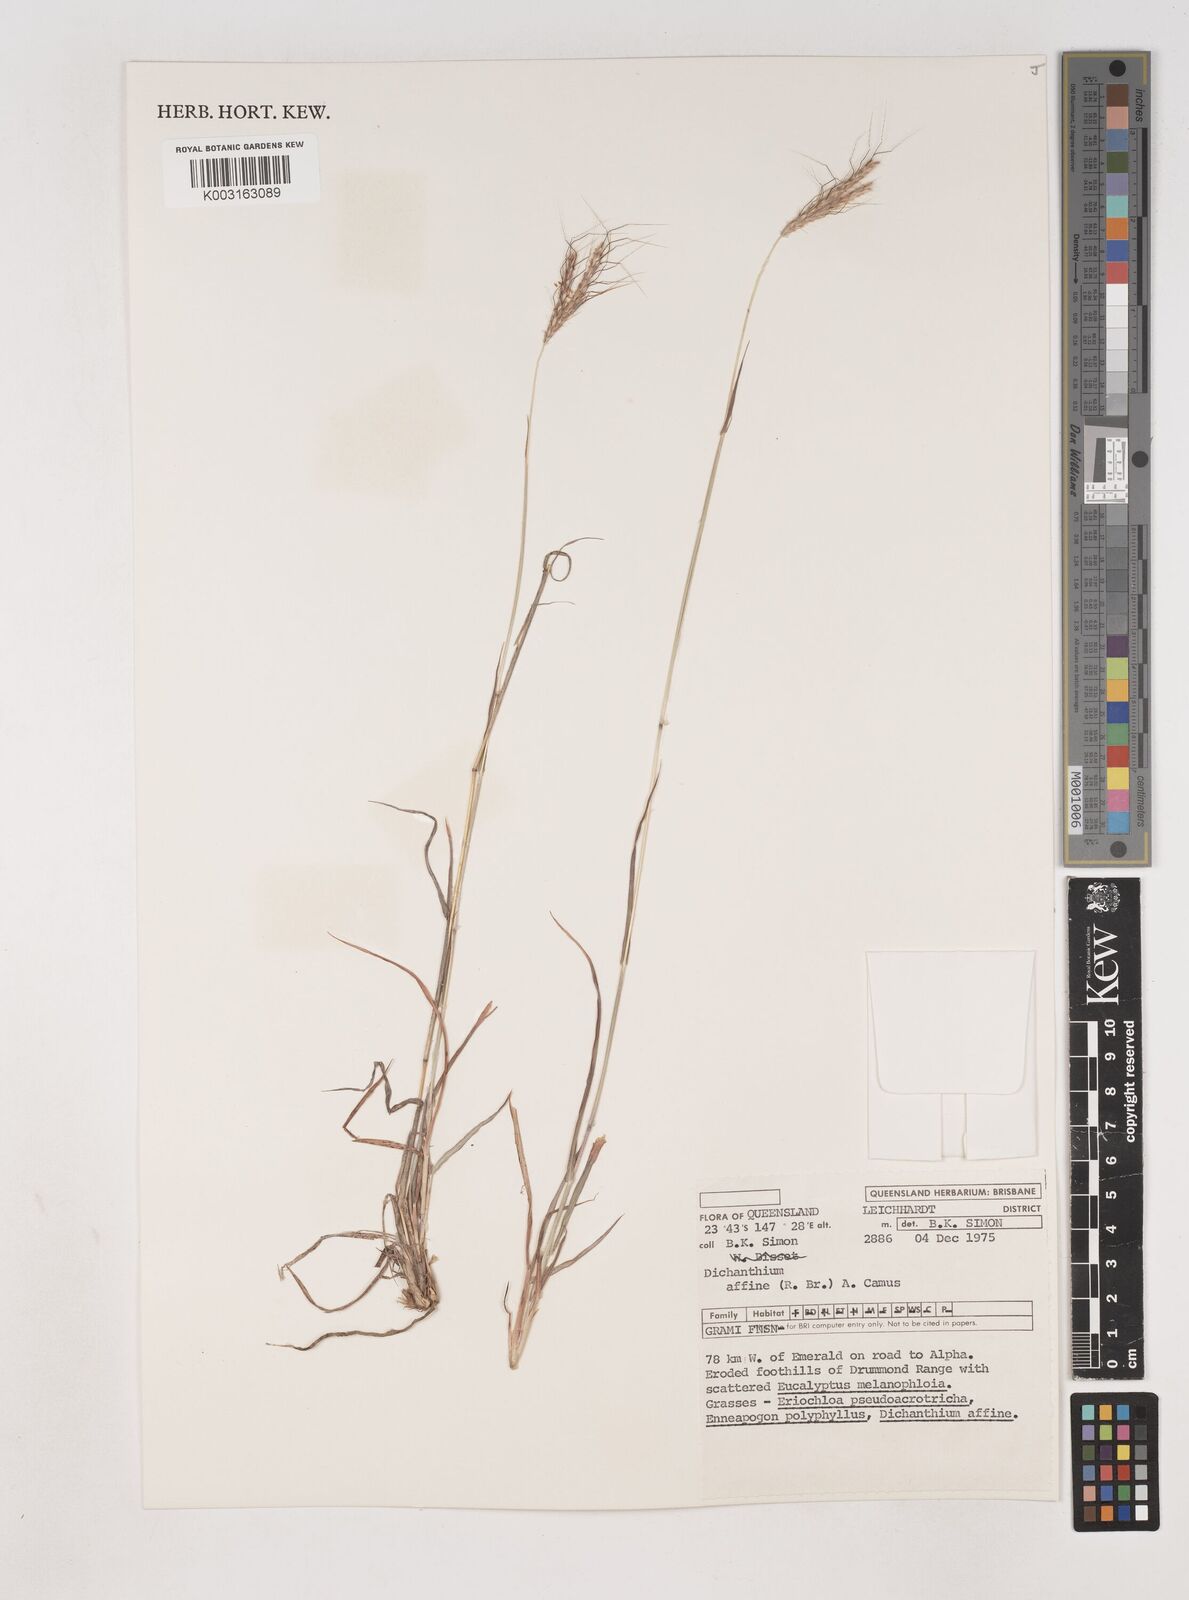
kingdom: Plantae
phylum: Tracheophyta
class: Liliopsida
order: Poales
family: Poaceae
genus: Dichanthium
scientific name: Dichanthium sericeum
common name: Silky bluestem
